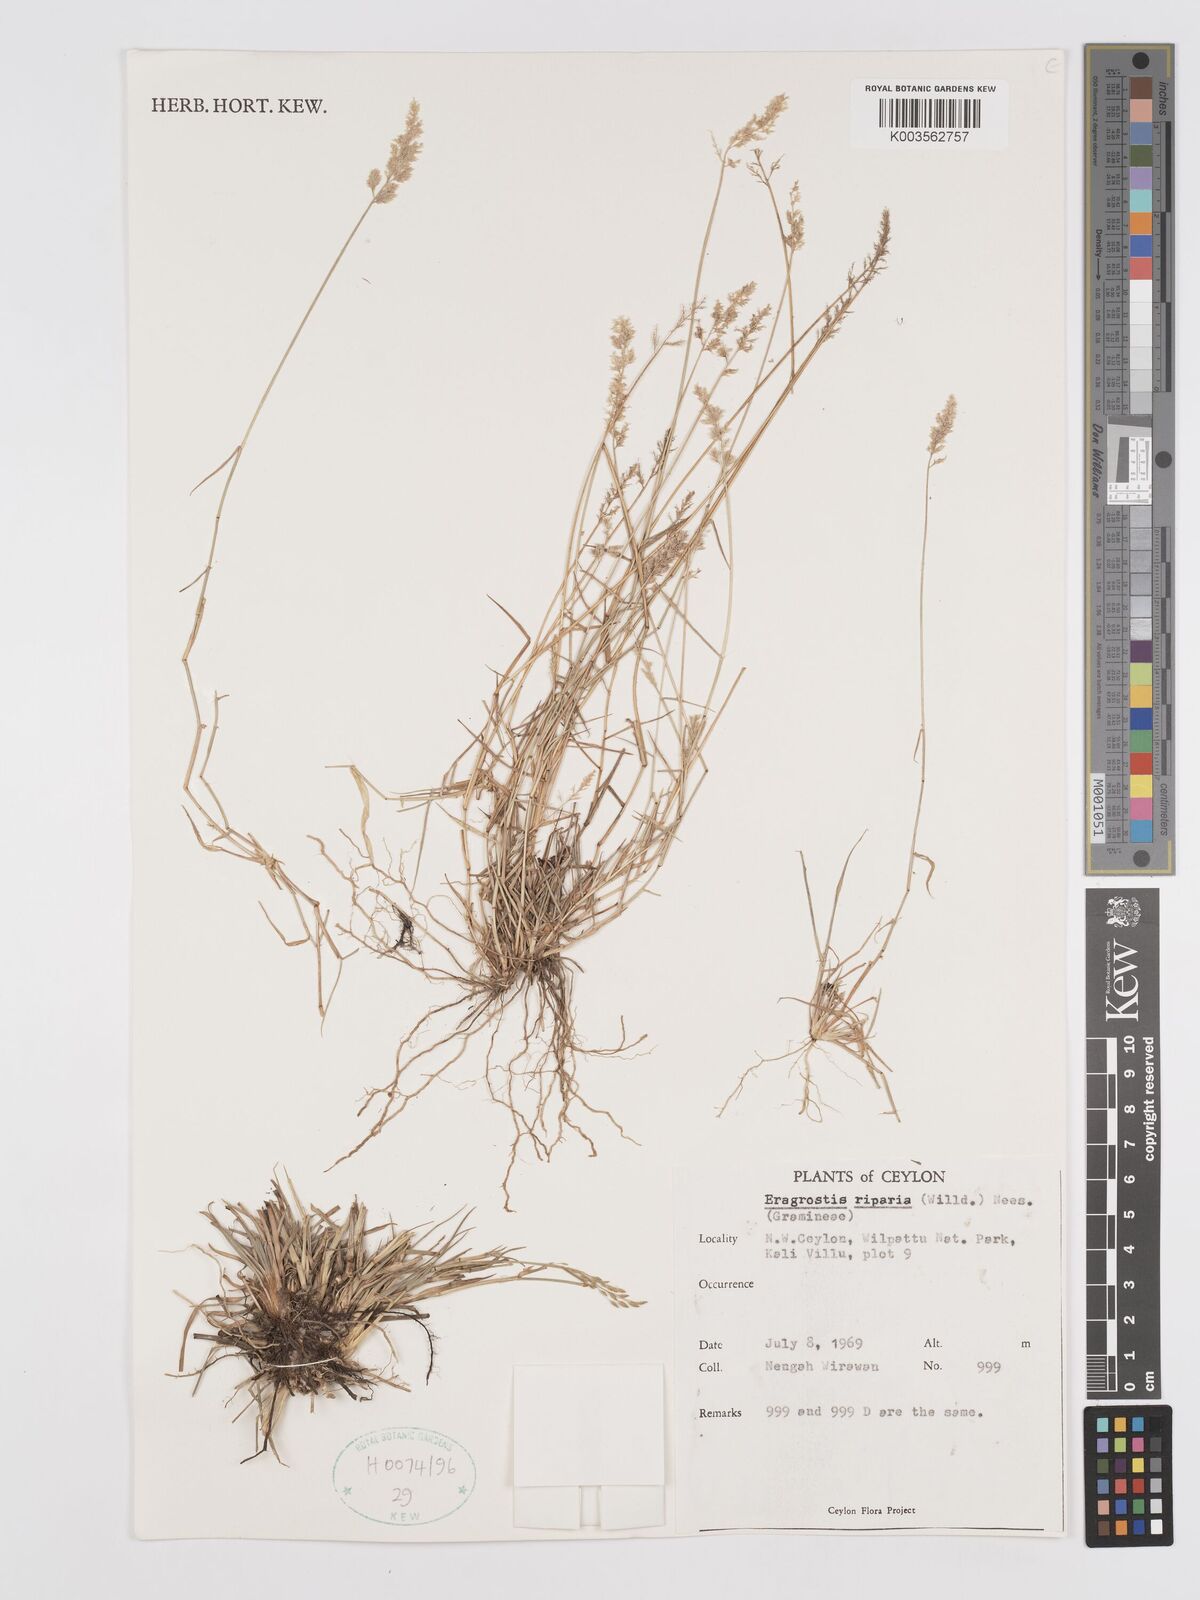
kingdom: Plantae
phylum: Tracheophyta
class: Liliopsida
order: Poales
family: Poaceae
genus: Eragrostis
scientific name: Eragrostis riparia
